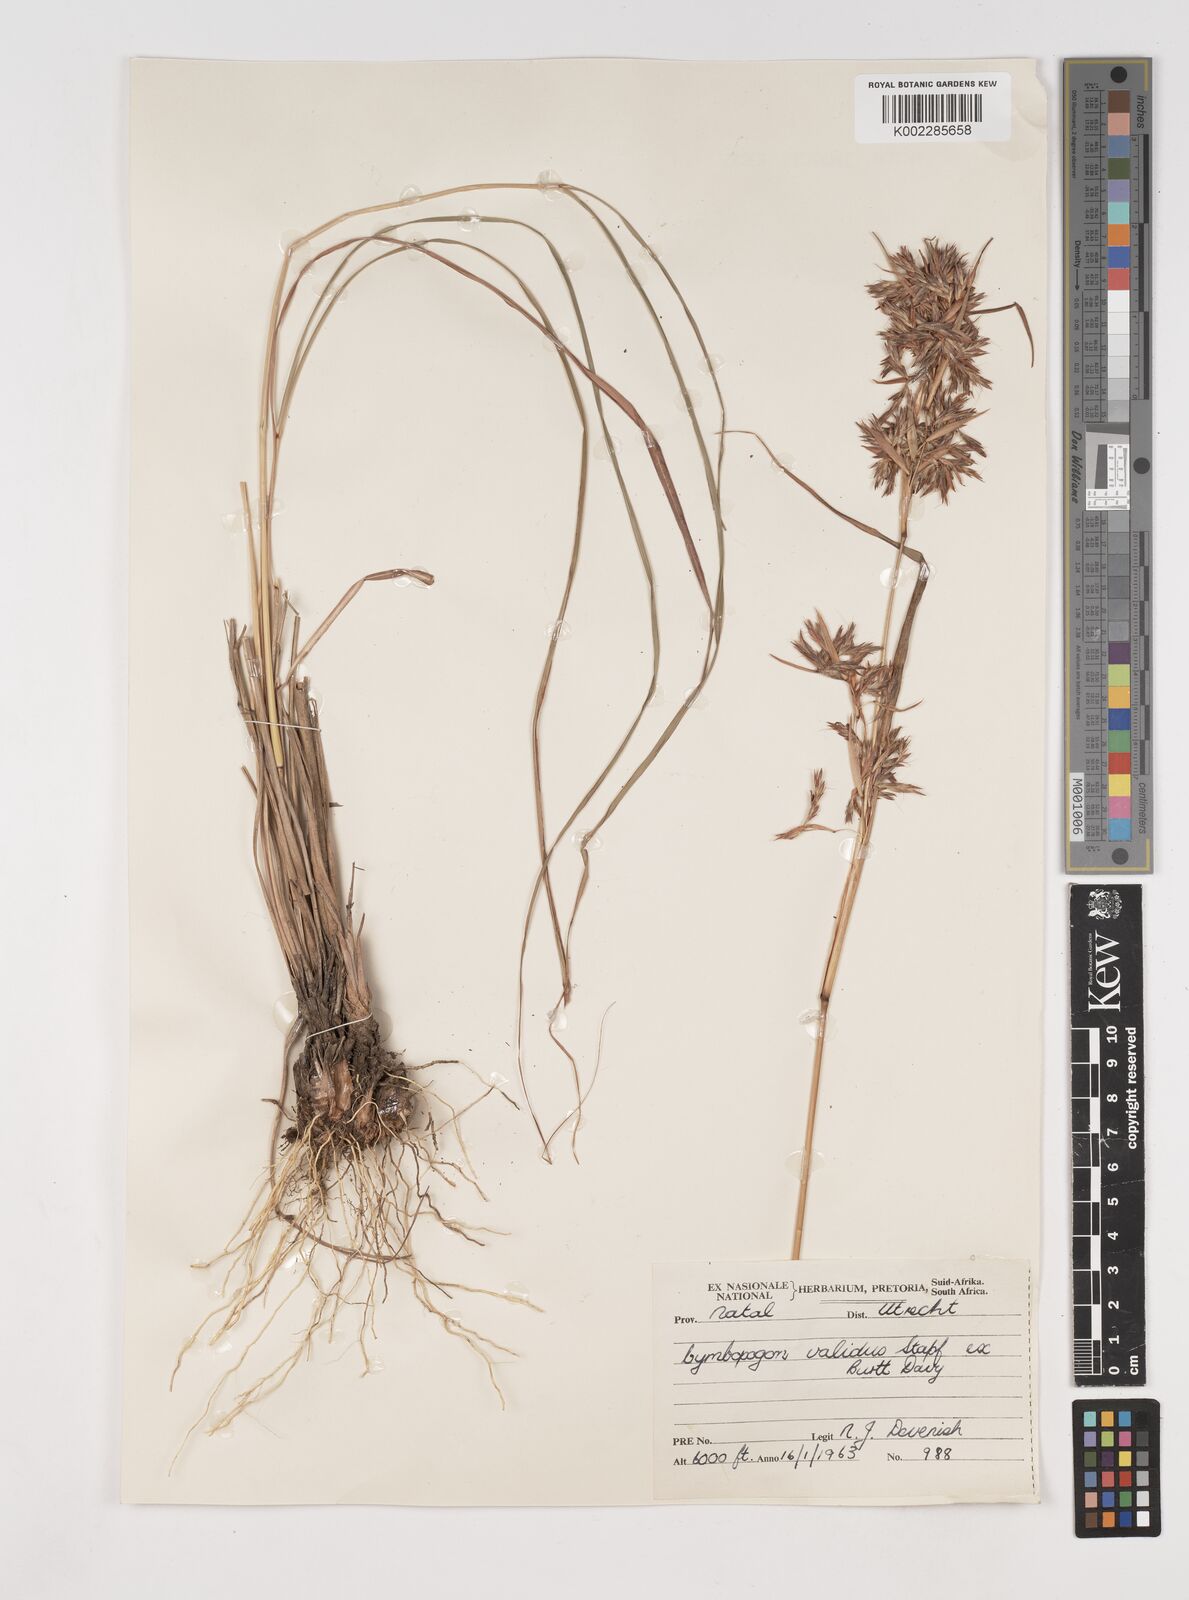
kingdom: Plantae
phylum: Tracheophyta
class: Liliopsida
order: Poales
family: Poaceae
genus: Cymbopogon
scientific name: Cymbopogon marginatus
